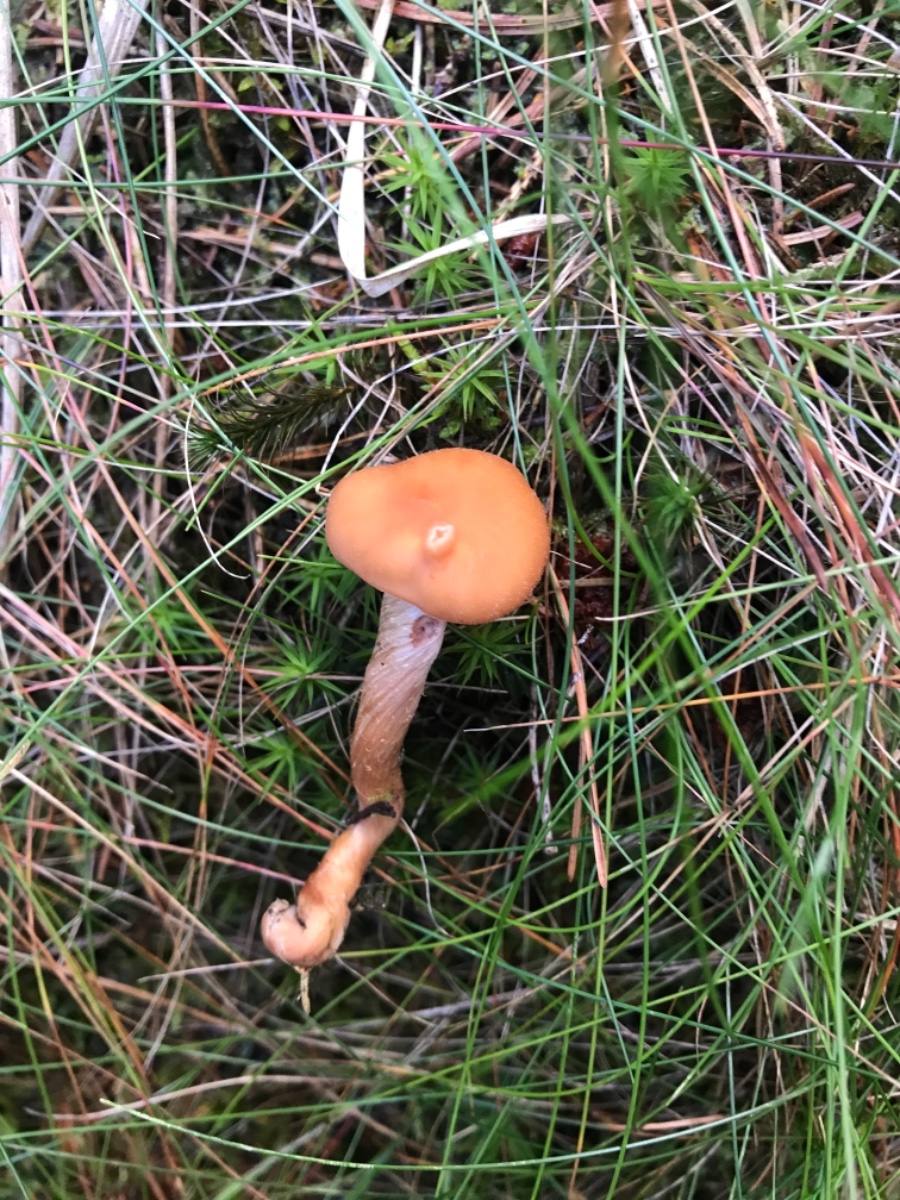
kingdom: Fungi
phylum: Basidiomycota
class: Agaricomycetes
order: Agaricales
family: Hydnangiaceae
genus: Laccaria
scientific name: Laccaria bicolor
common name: tvefarvet ametysthat
